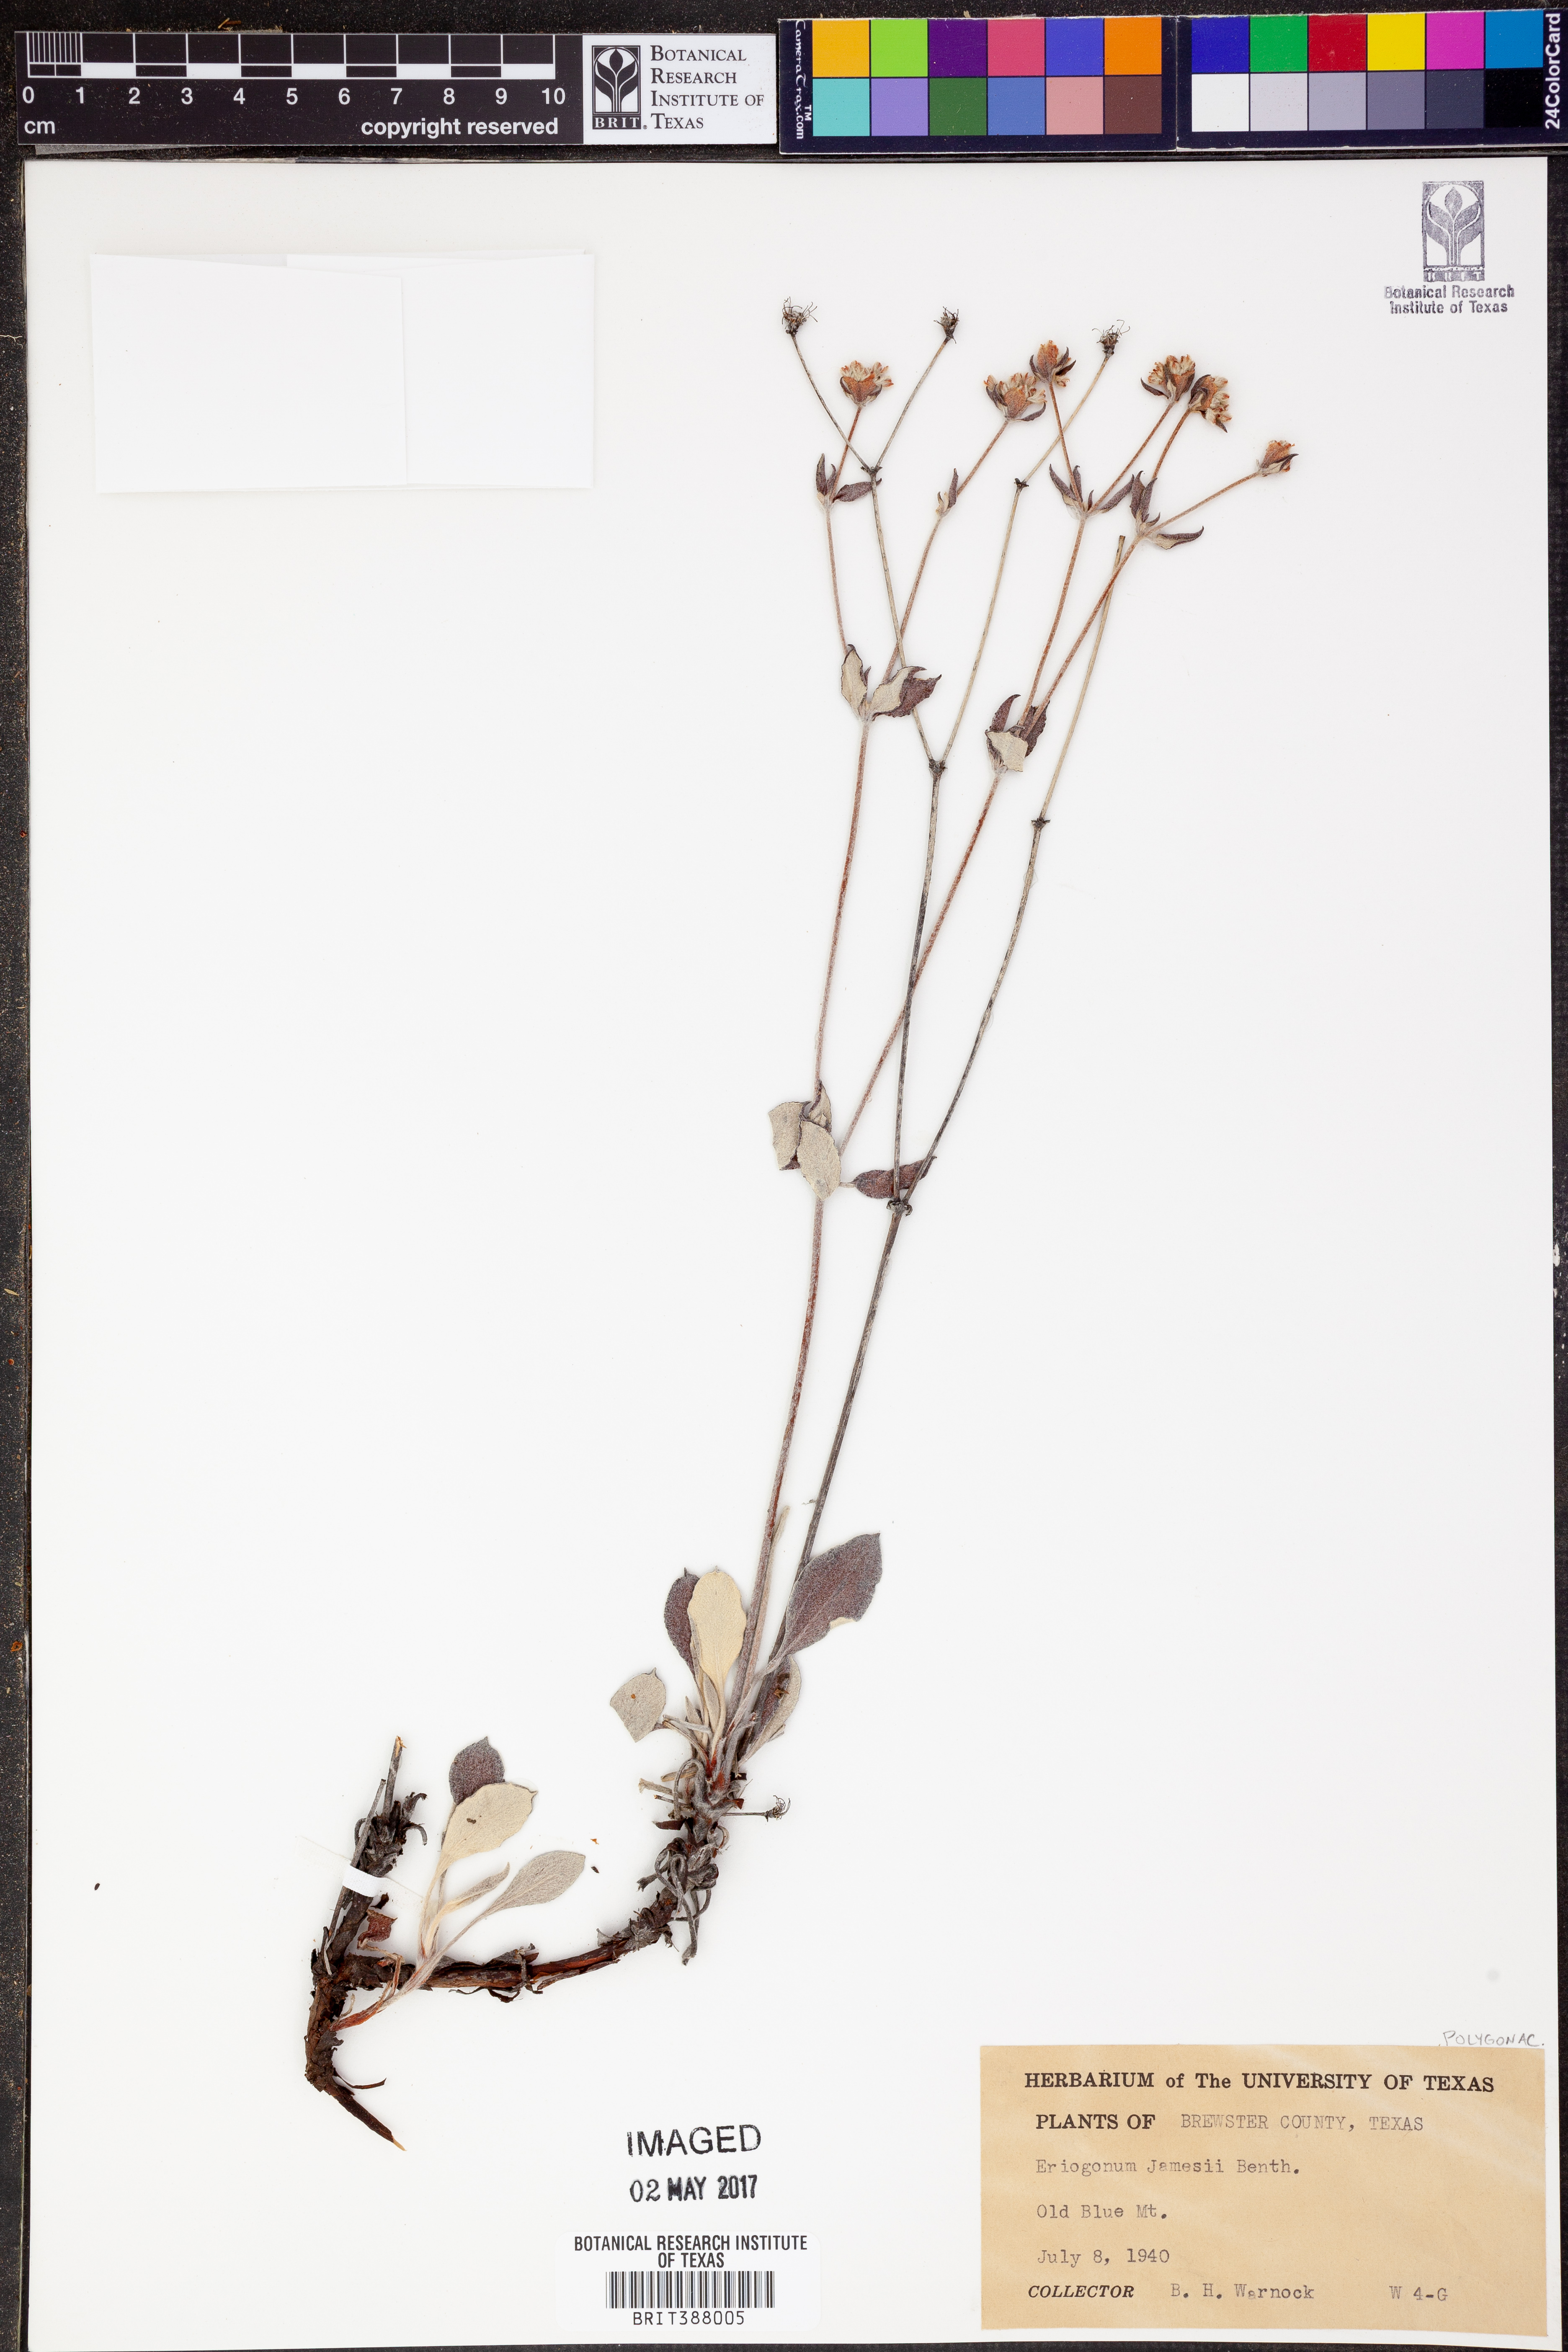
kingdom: Plantae
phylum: Tracheophyta
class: Magnoliopsida
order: Caryophyllales
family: Polygonaceae
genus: Eriogonum
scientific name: Eriogonum jamesii
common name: Antelope-sage
